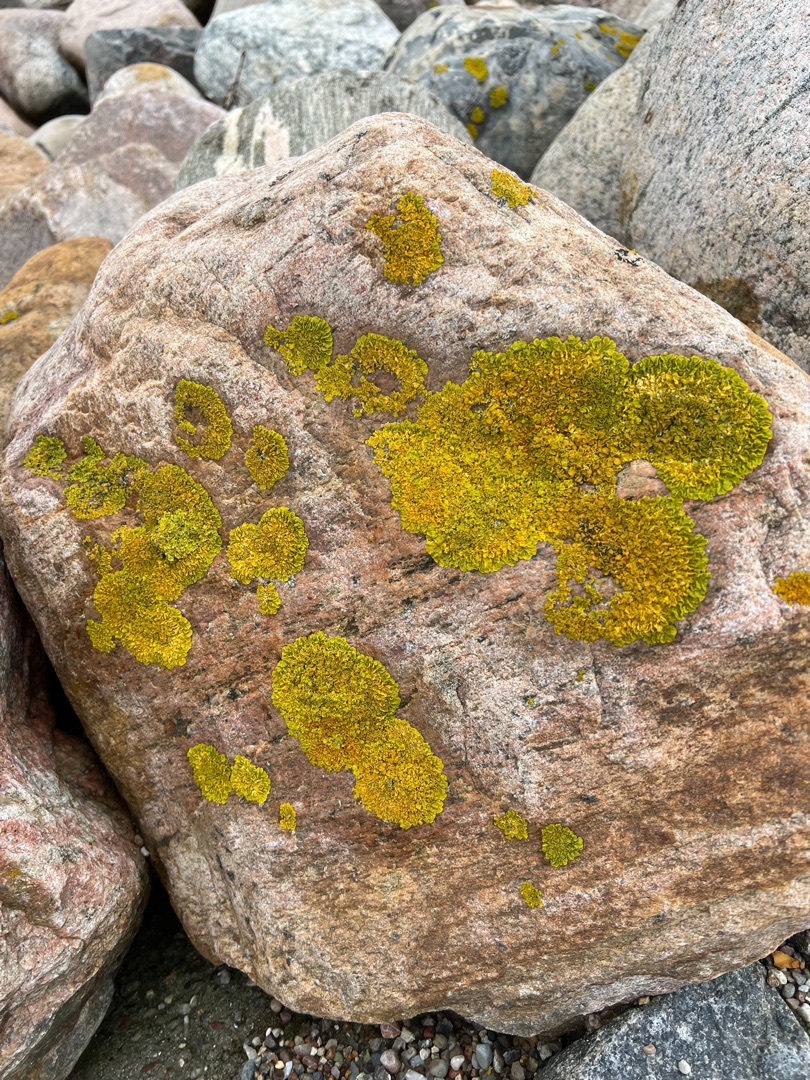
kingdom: Fungi
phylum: Ascomycota
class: Lecanoromycetes
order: Teloschistales
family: Teloschistaceae
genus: Xanthoria
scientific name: Xanthoria parietina
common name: Almindelig væggelav
